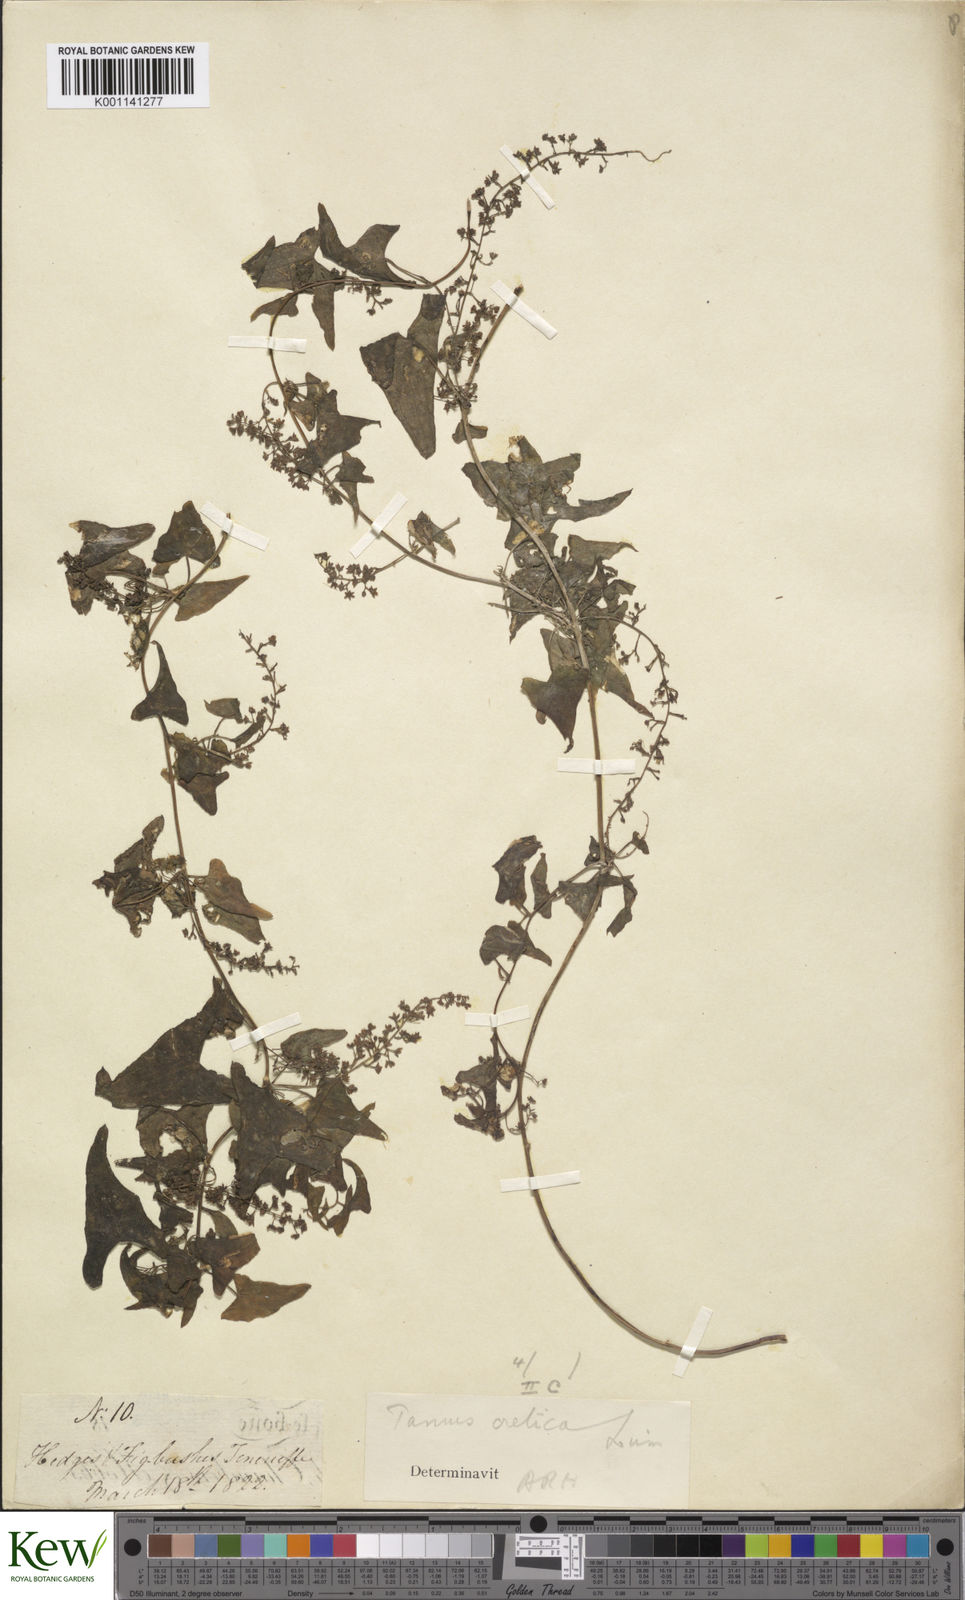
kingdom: Plantae
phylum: Tracheophyta
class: Liliopsida
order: Dioscoreales
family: Dioscoreaceae
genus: Dioscorea
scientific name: Dioscorea
